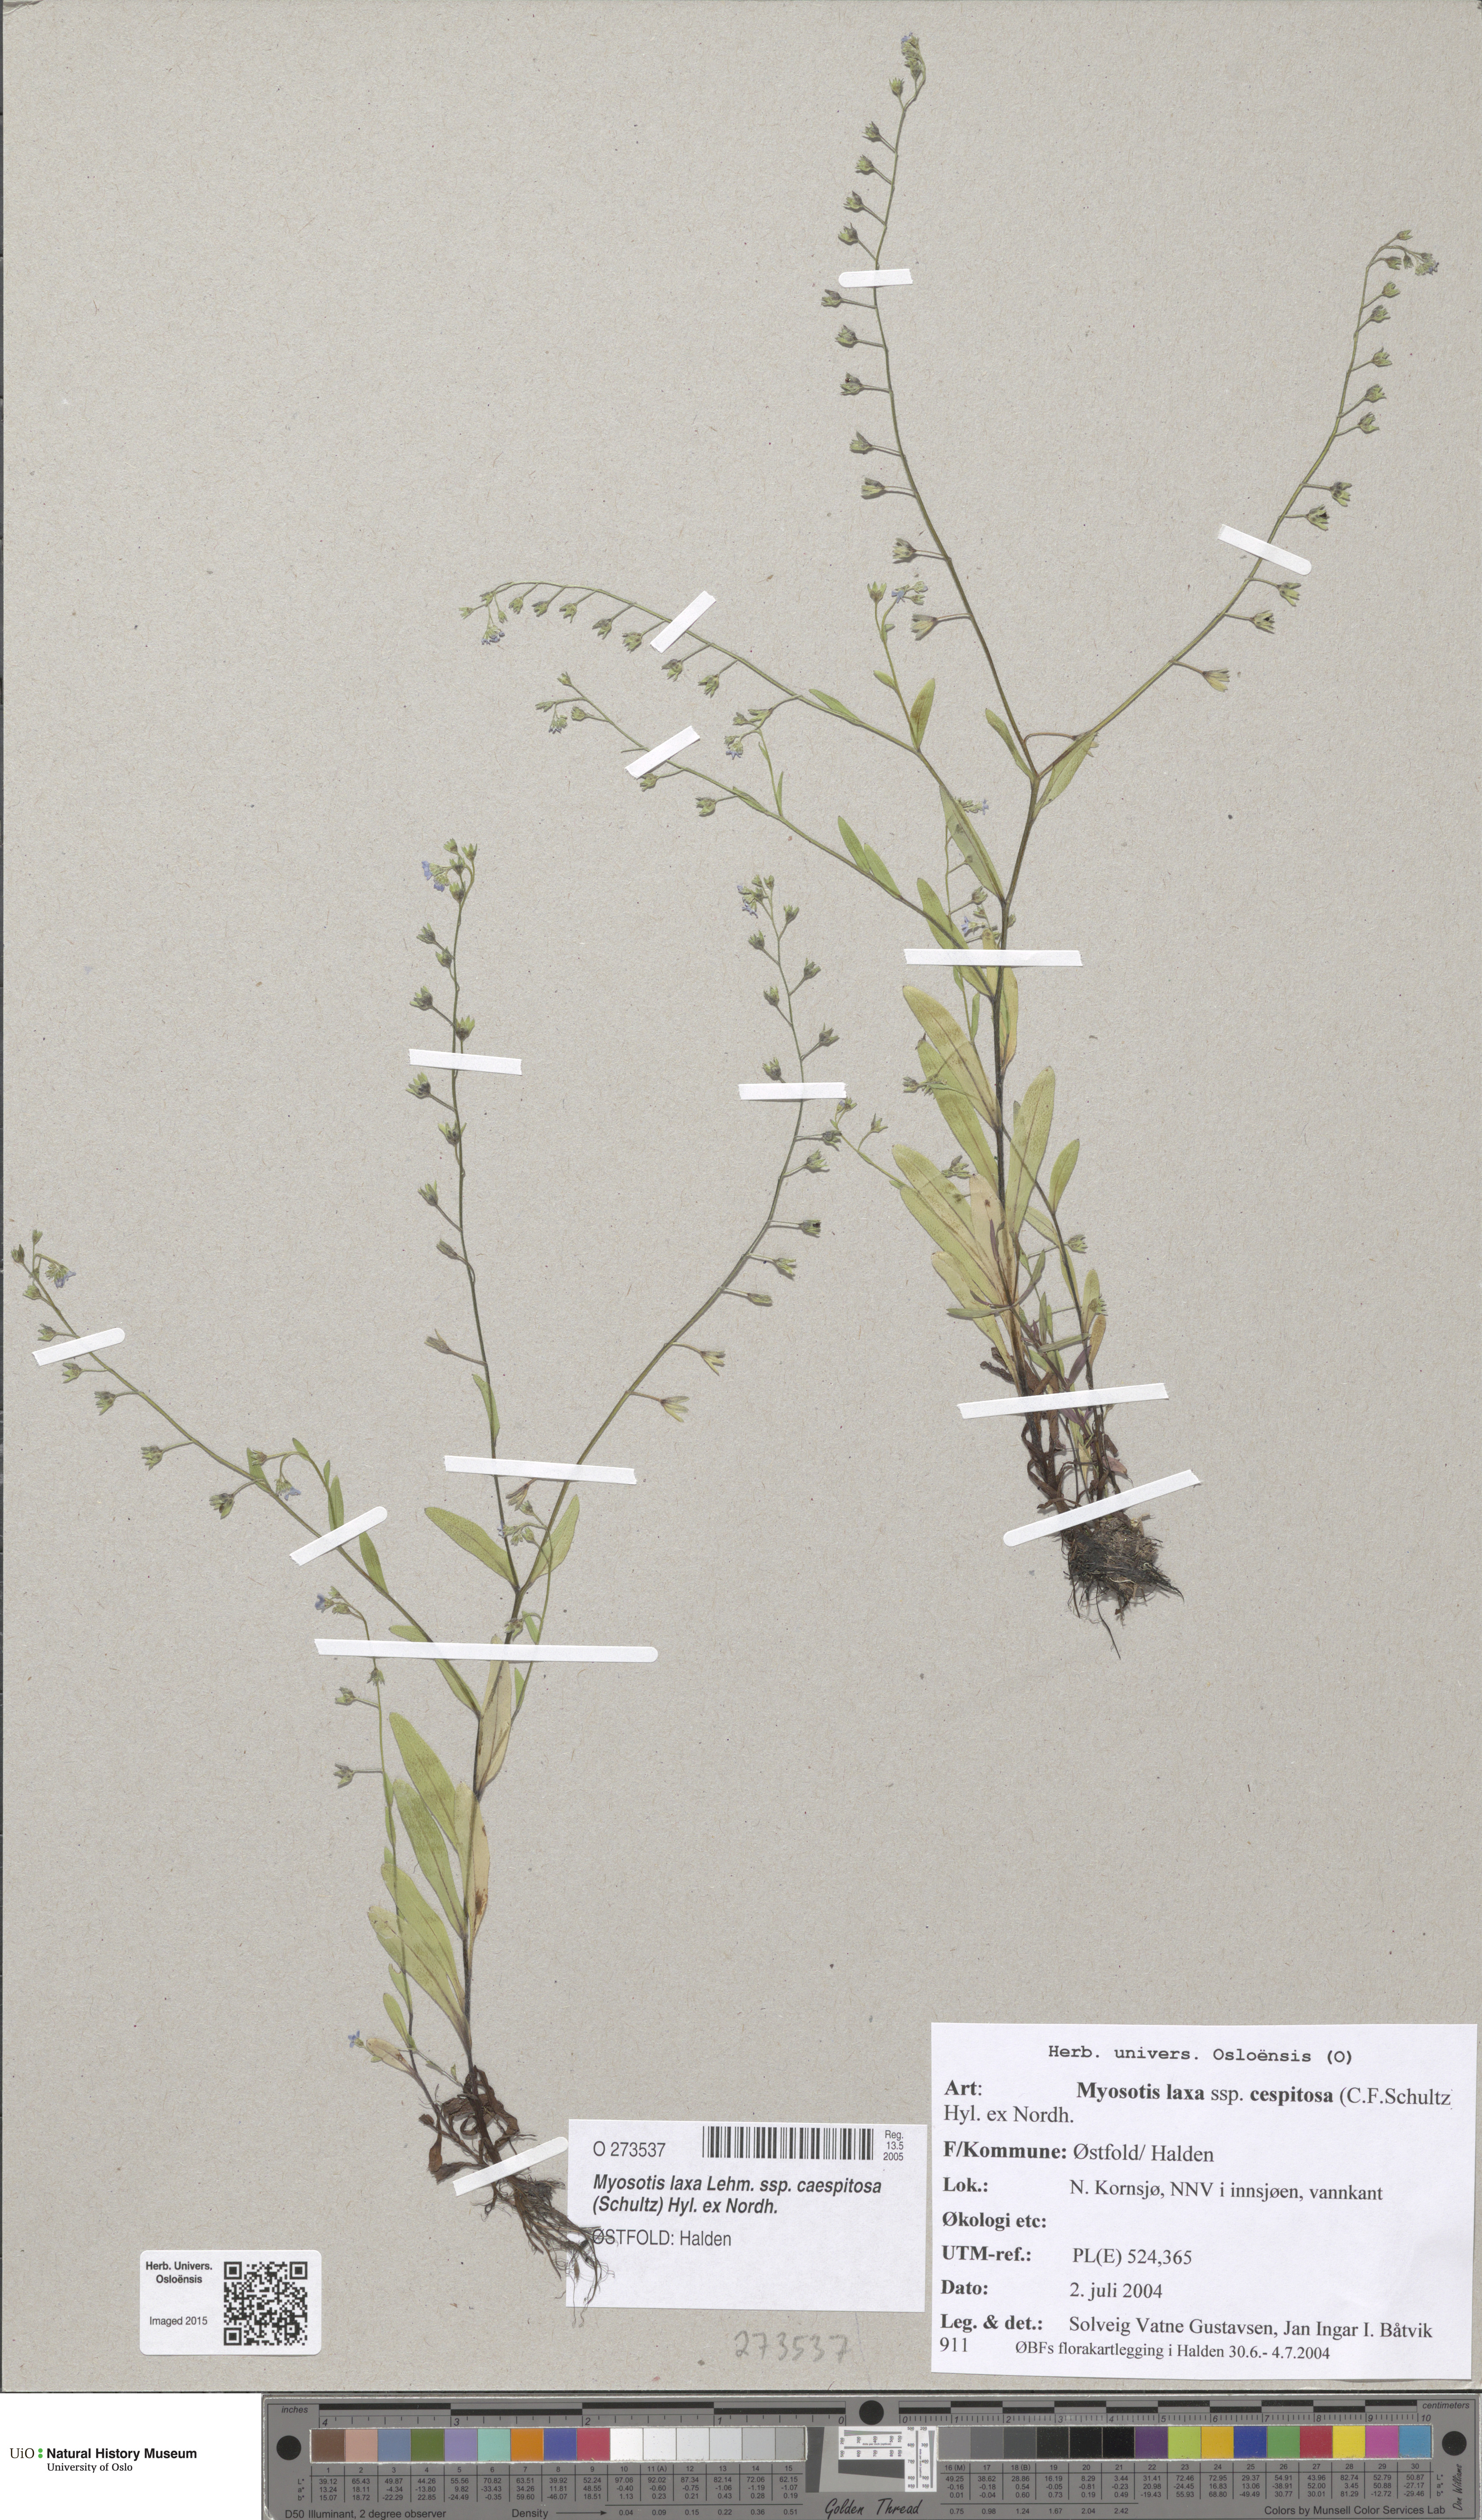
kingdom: Plantae
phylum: Tracheophyta
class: Magnoliopsida
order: Boraginales
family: Boraginaceae
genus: Myosotis
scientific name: Myosotis laxa
